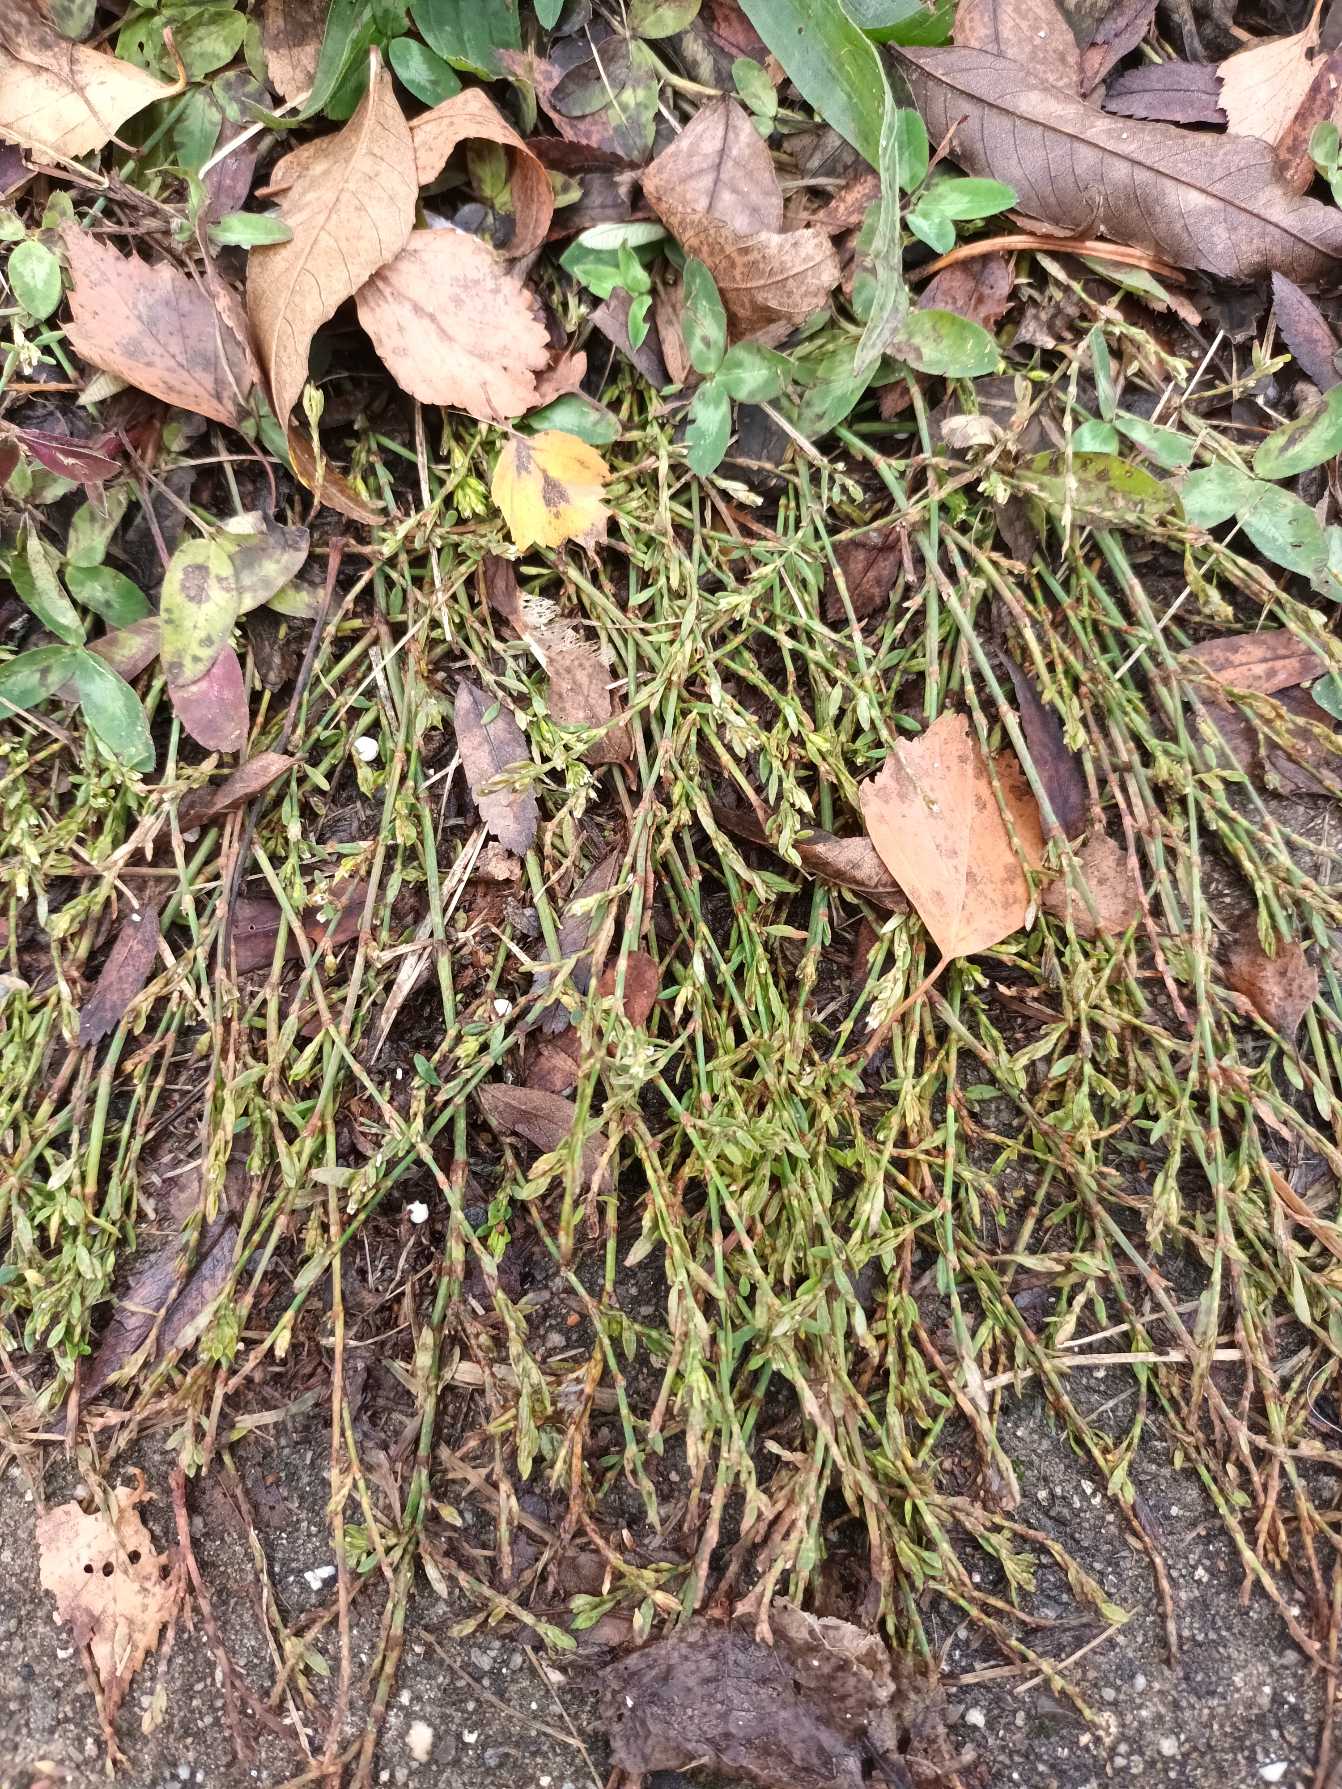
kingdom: Plantae
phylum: Tracheophyta
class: Magnoliopsida
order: Caryophyllales
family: Polygonaceae
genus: Polygonum
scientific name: Polygonum arenastrum
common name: Liggende vej-pileurt
